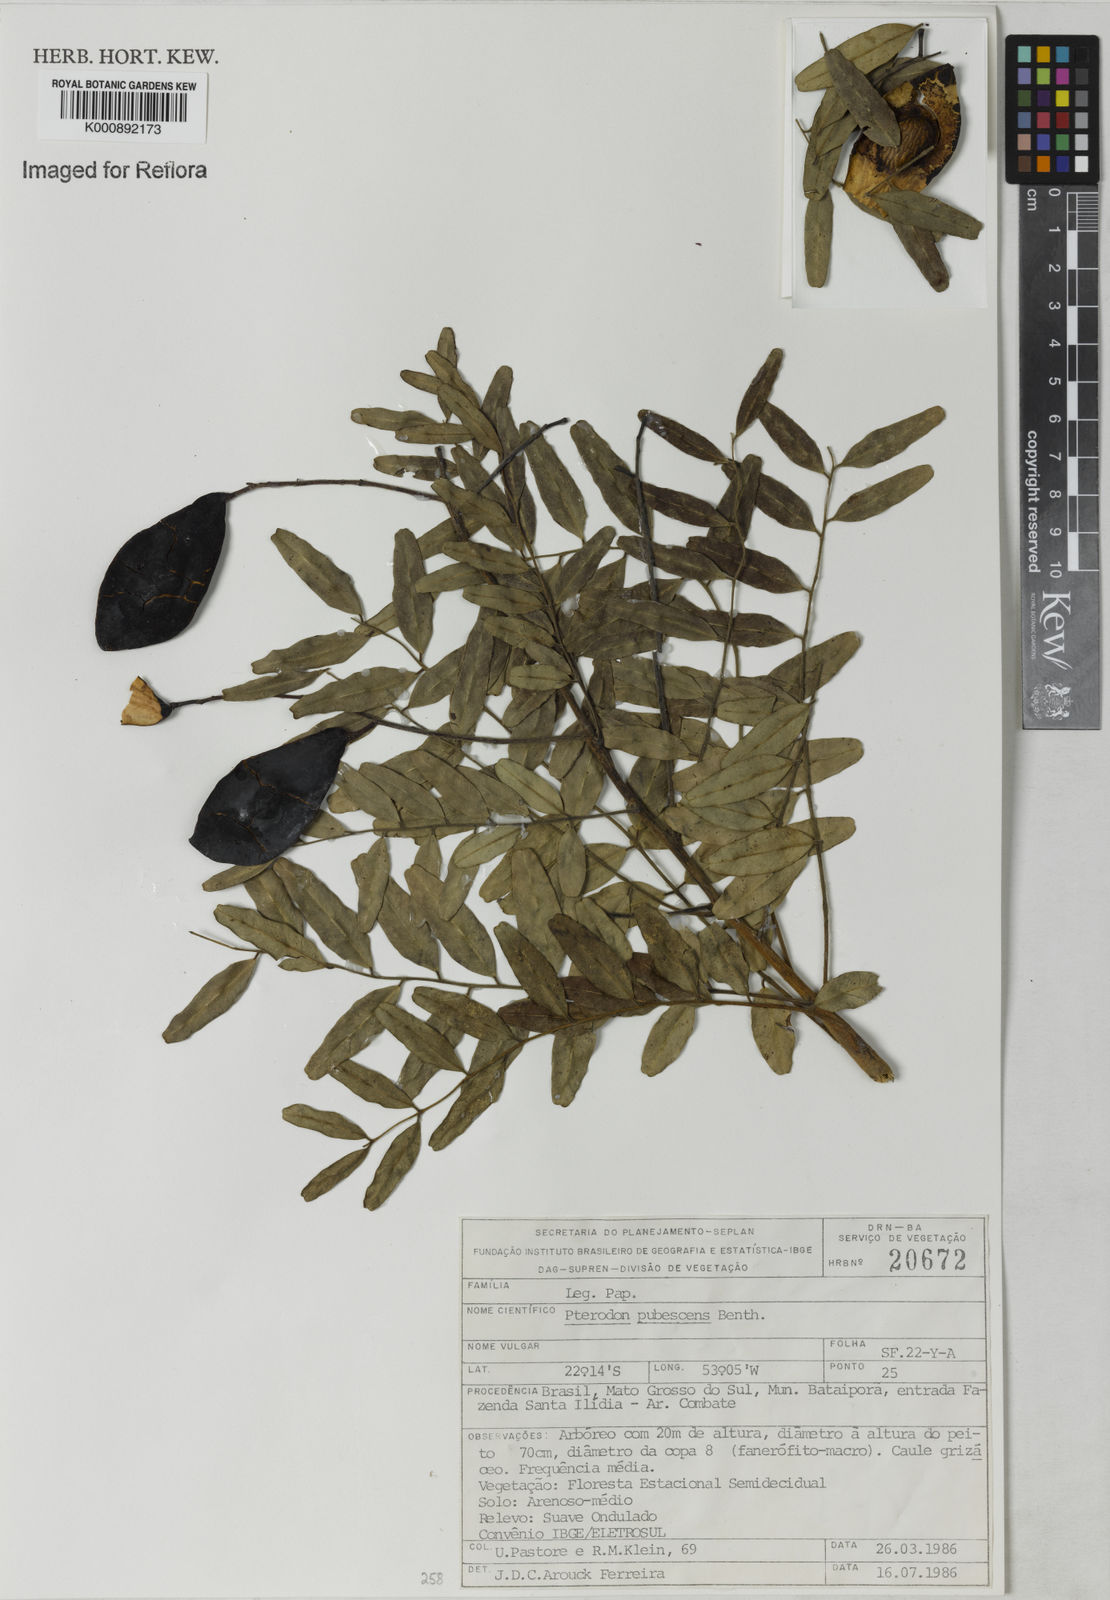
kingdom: Plantae
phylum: Tracheophyta
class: Magnoliopsida
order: Fabales
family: Fabaceae
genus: Pterodon
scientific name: Pterodon emarginatus
